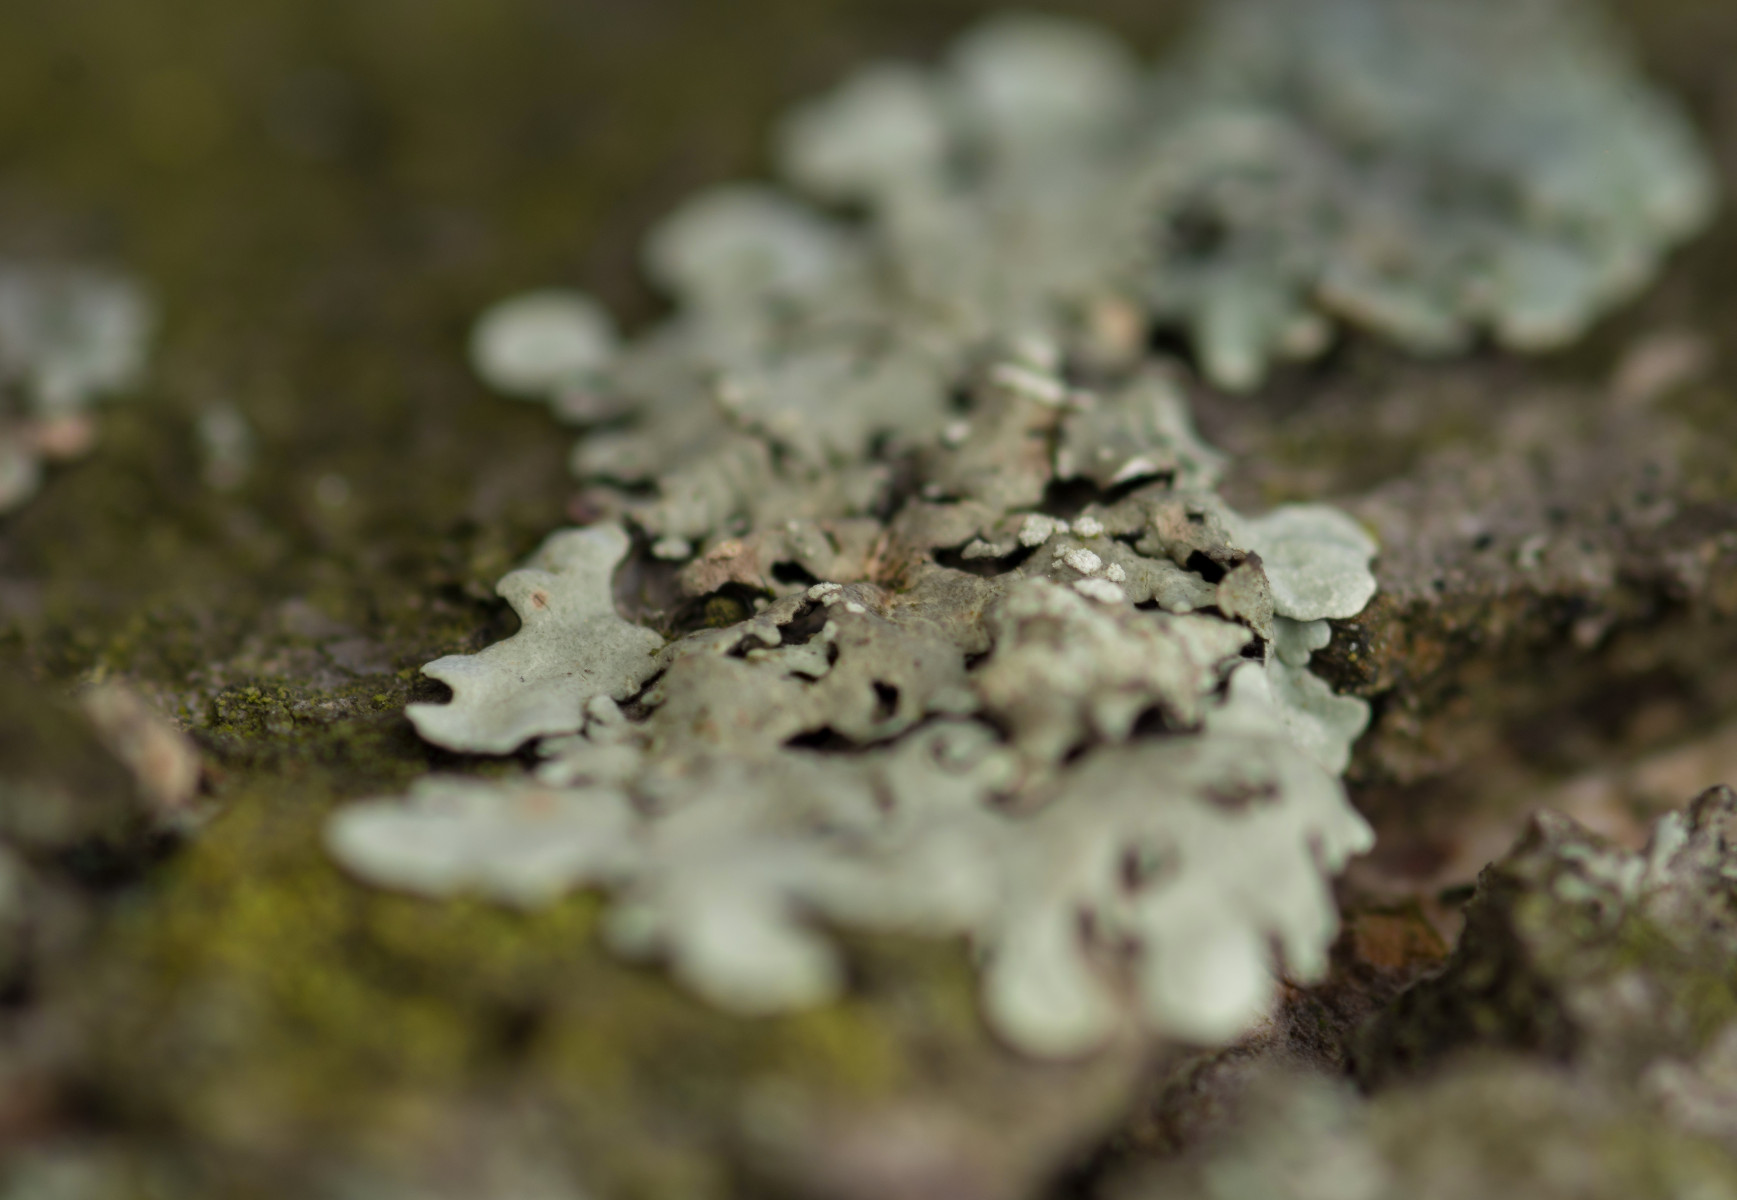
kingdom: Fungi
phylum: Ascomycota
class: Lecanoromycetes
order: Lecanorales
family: Parmeliaceae
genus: Flavoparmelia
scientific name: Flavoparmelia soredians
